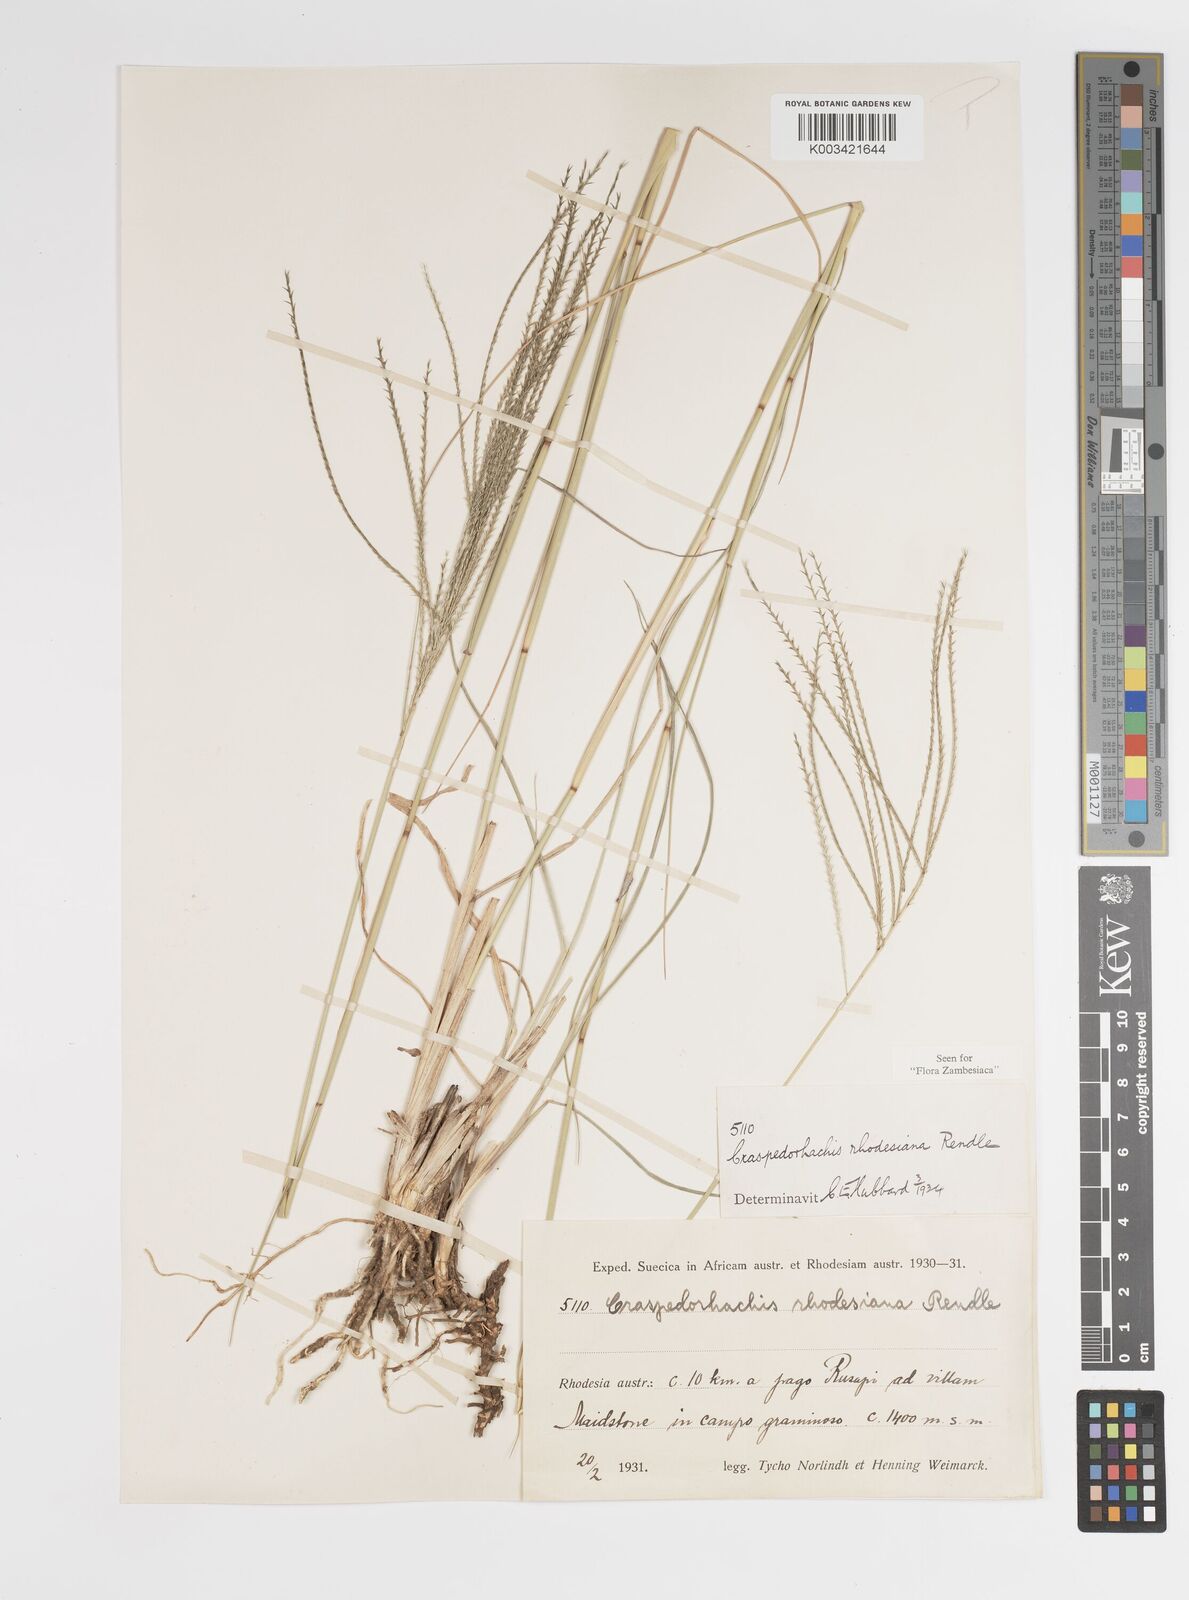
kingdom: Plantae
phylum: Tracheophyta
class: Liliopsida
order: Poales
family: Poaceae
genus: Craspedorhachis
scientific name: Craspedorhachis rhodesiana
